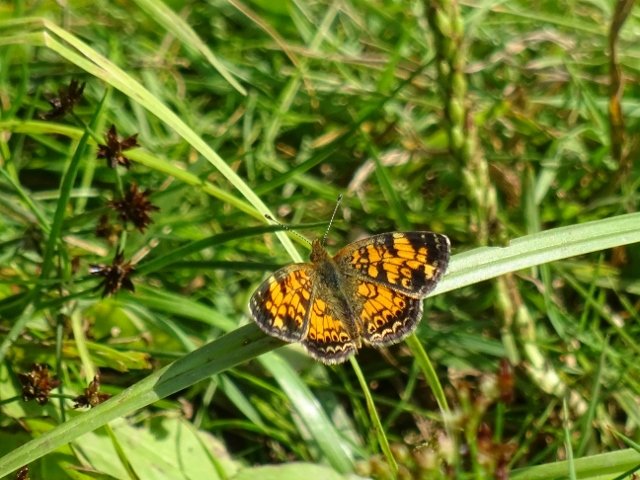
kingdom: Animalia
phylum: Arthropoda
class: Insecta
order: Lepidoptera
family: Nymphalidae
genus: Phyciodes
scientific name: Phyciodes tharos
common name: Pearl Crescent
